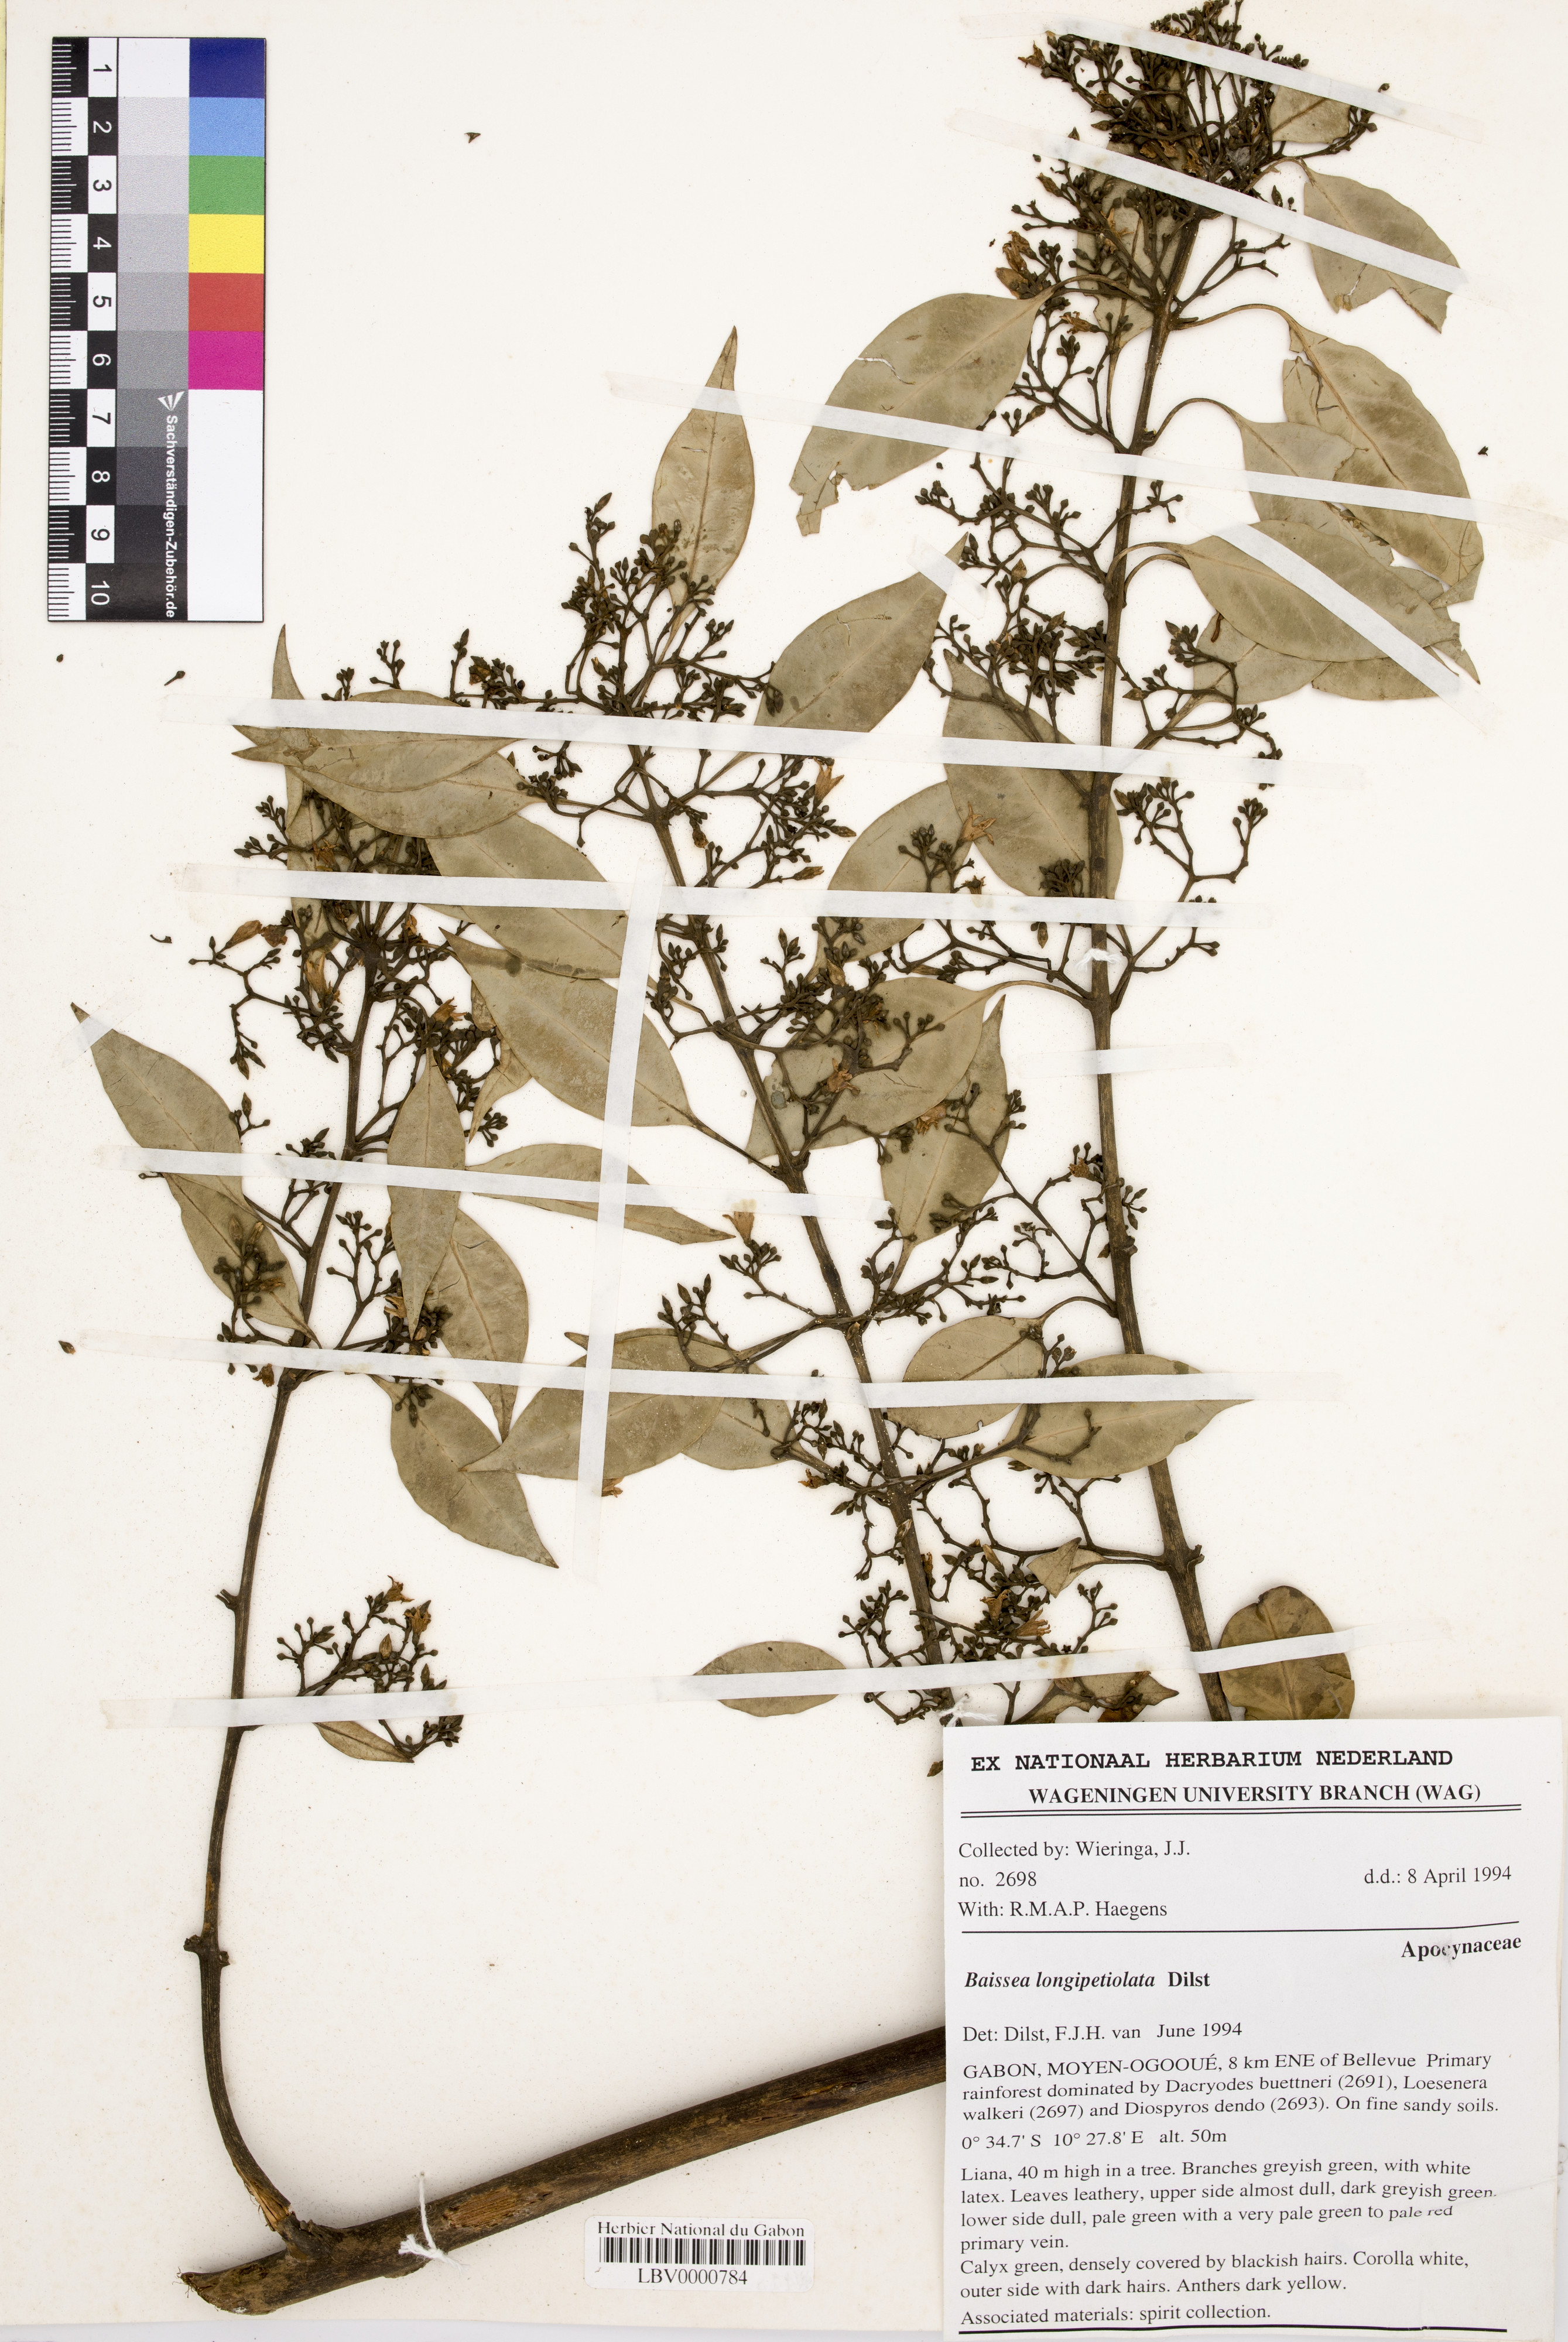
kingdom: Plantae
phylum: Tracheophyta
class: Magnoliopsida
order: Gentianales
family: Apocynaceae
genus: Baissea
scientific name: Baissea longipetiolata
